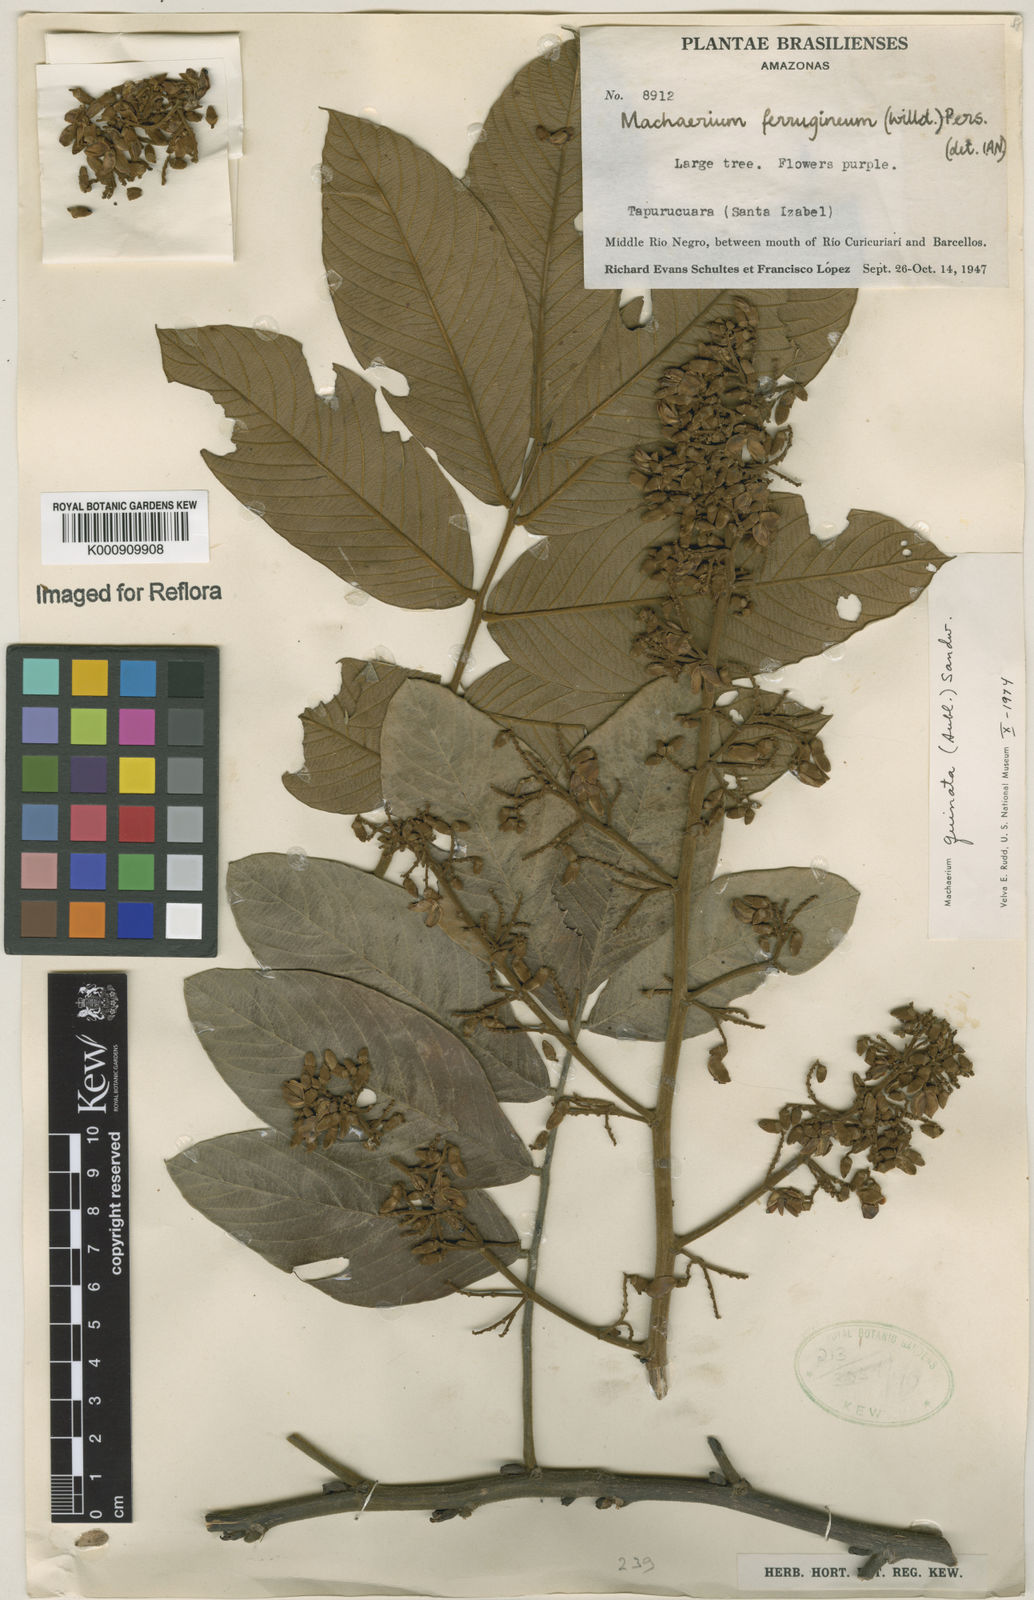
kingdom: Plantae
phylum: Tracheophyta
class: Magnoliopsida
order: Fabales
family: Fabaceae
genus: Machaerium
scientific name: Machaerium quinata
